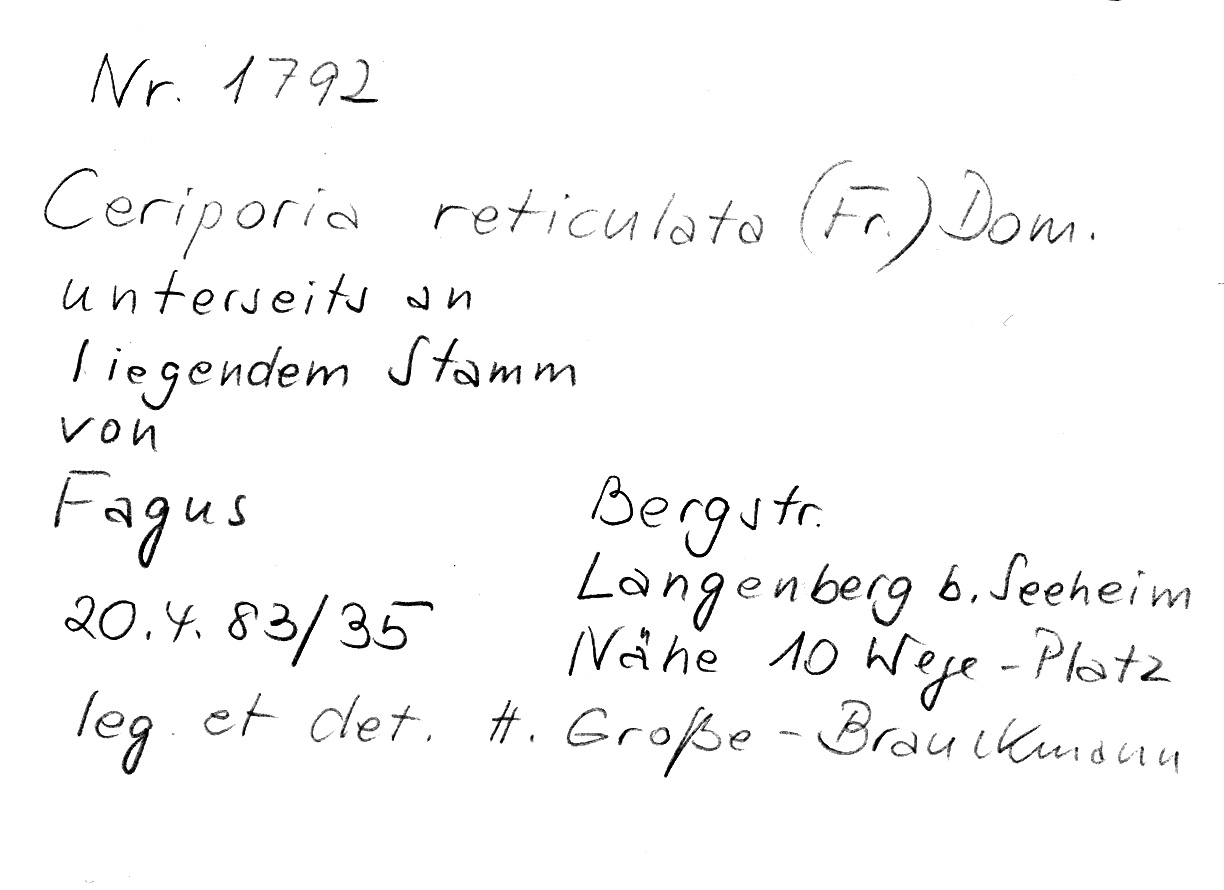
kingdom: Plantae
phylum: Tracheophyta
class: Magnoliopsida
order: Fagales
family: Fagaceae
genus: Fagus
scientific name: Fagus sylvatica
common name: Beech
